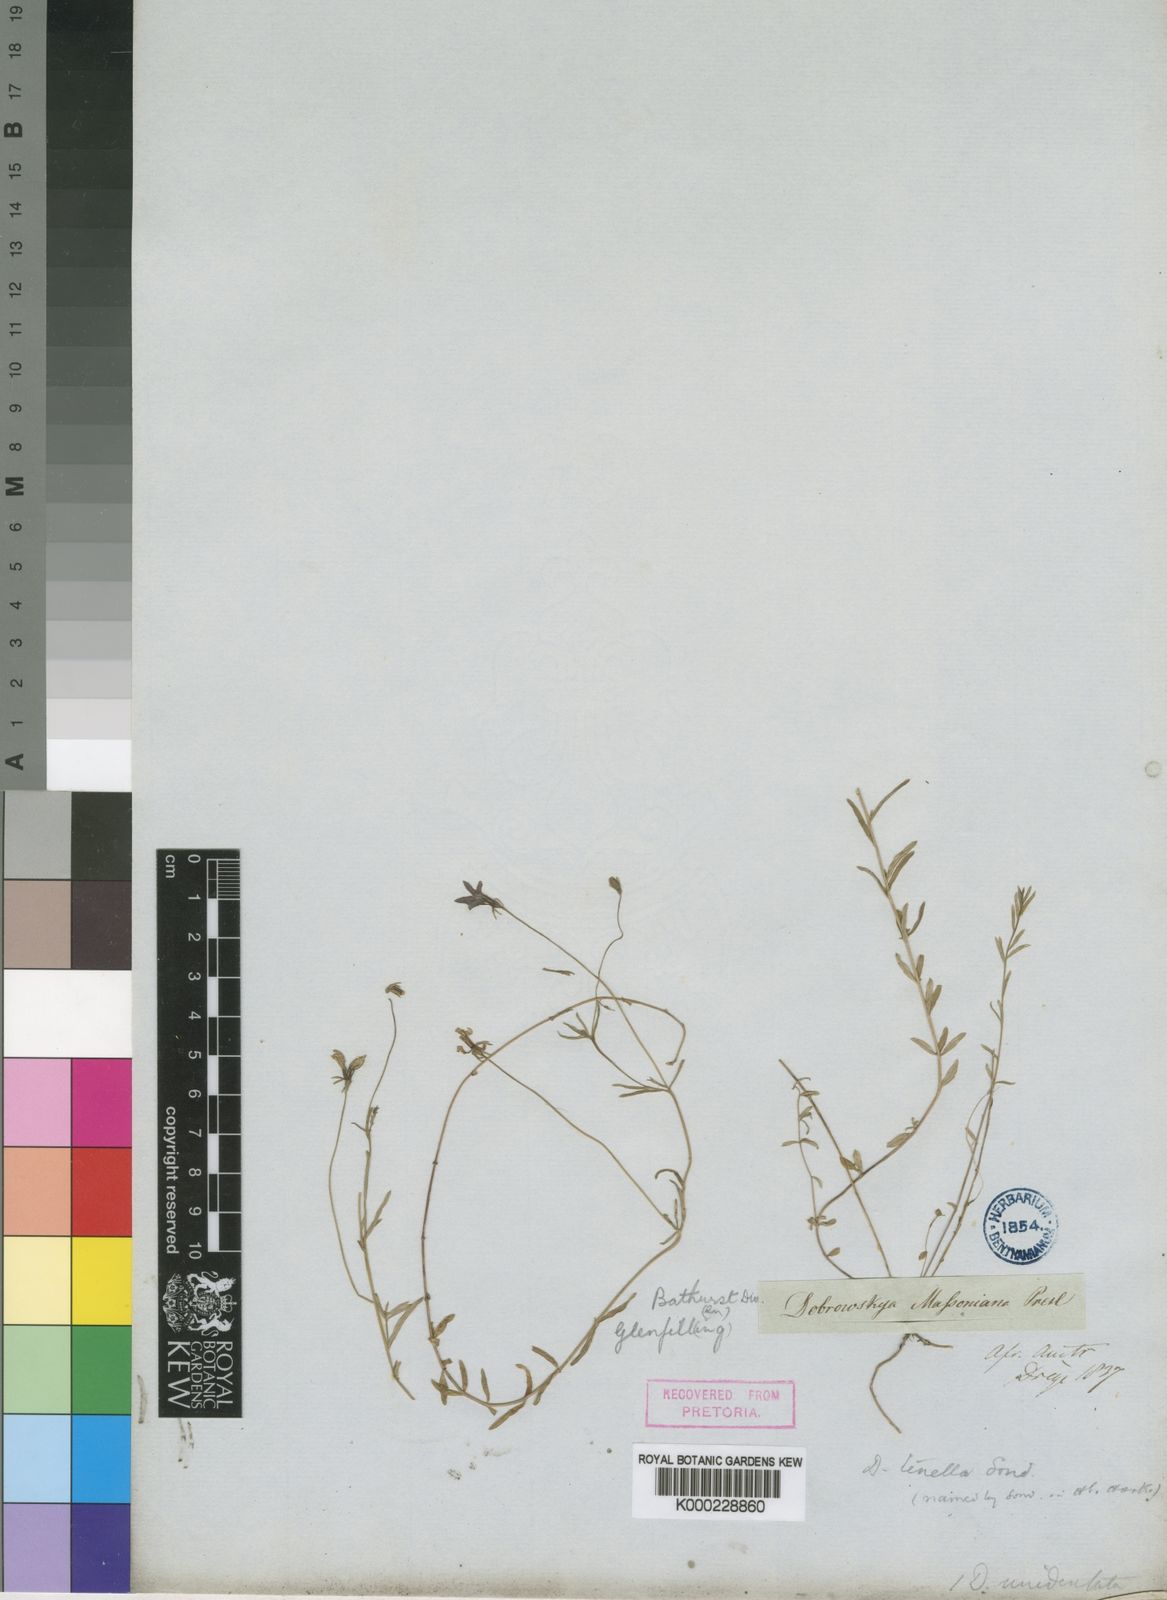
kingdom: Plantae
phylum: Tracheophyta
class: Magnoliopsida
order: Asterales
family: Campanulaceae
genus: Monopsis
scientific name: Monopsis unidentata
